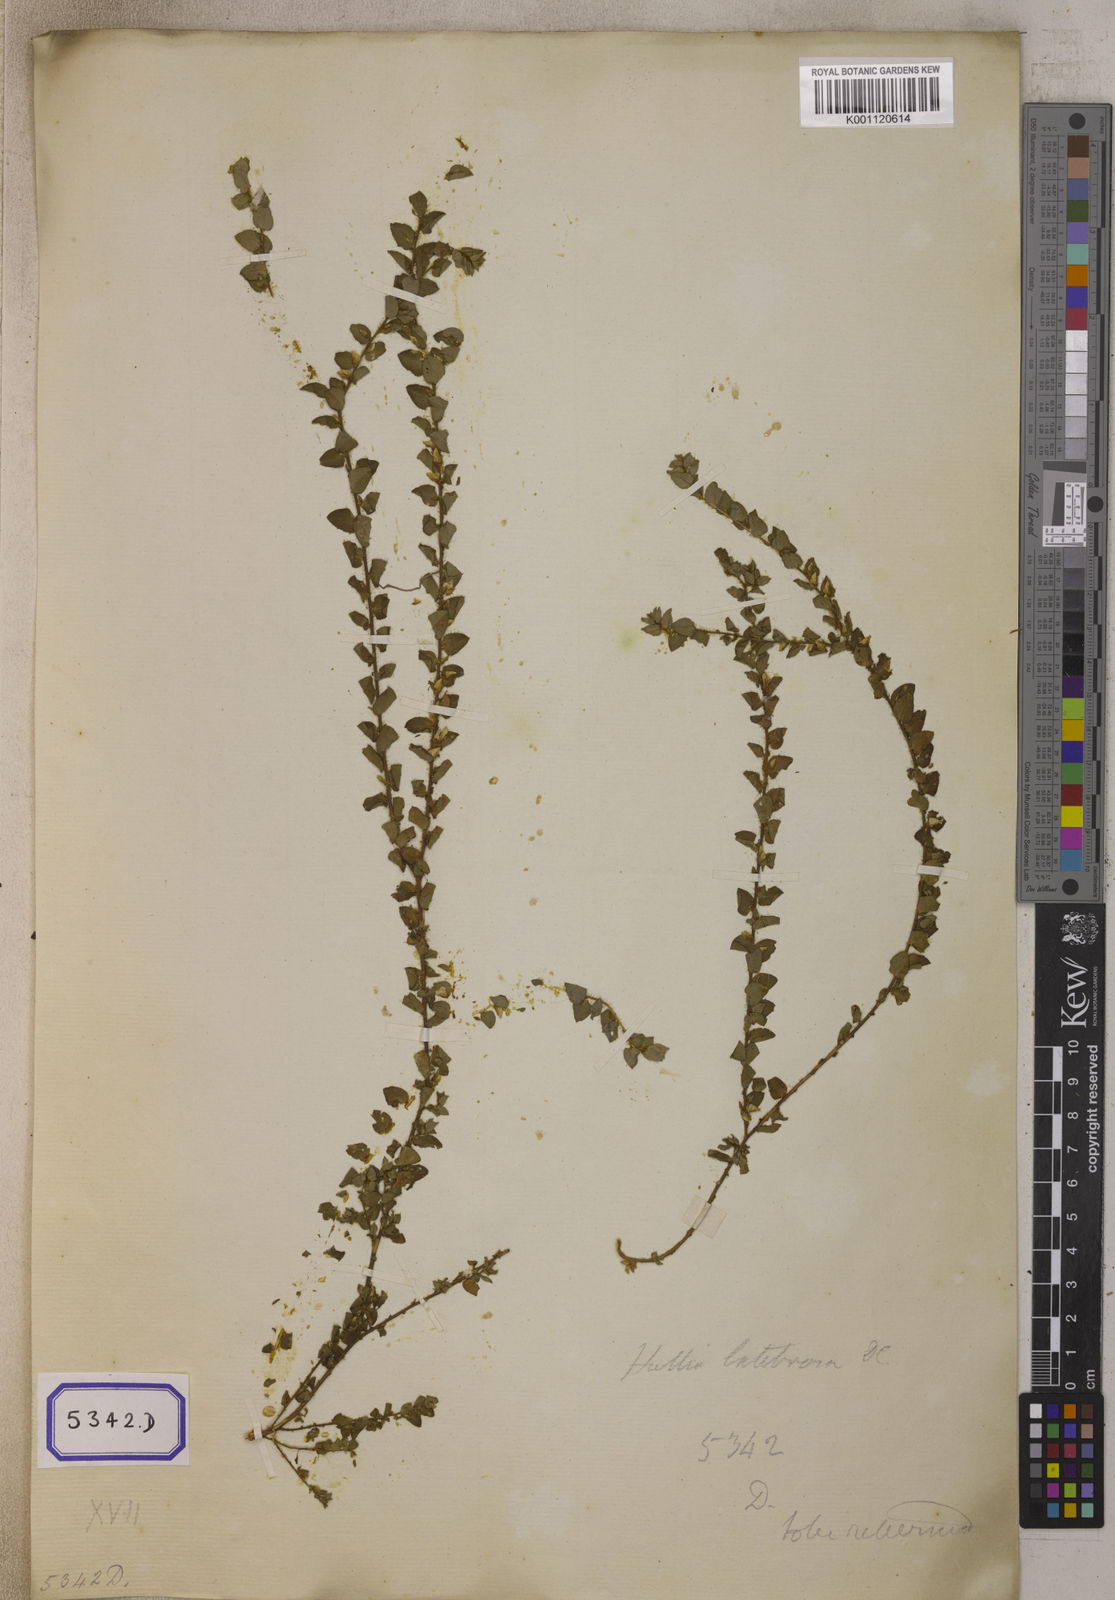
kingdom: Plantae
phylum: Tracheophyta
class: Magnoliopsida
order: Fabales
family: Fabaceae
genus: Crotalaria
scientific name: Crotalaria hebecarpa
